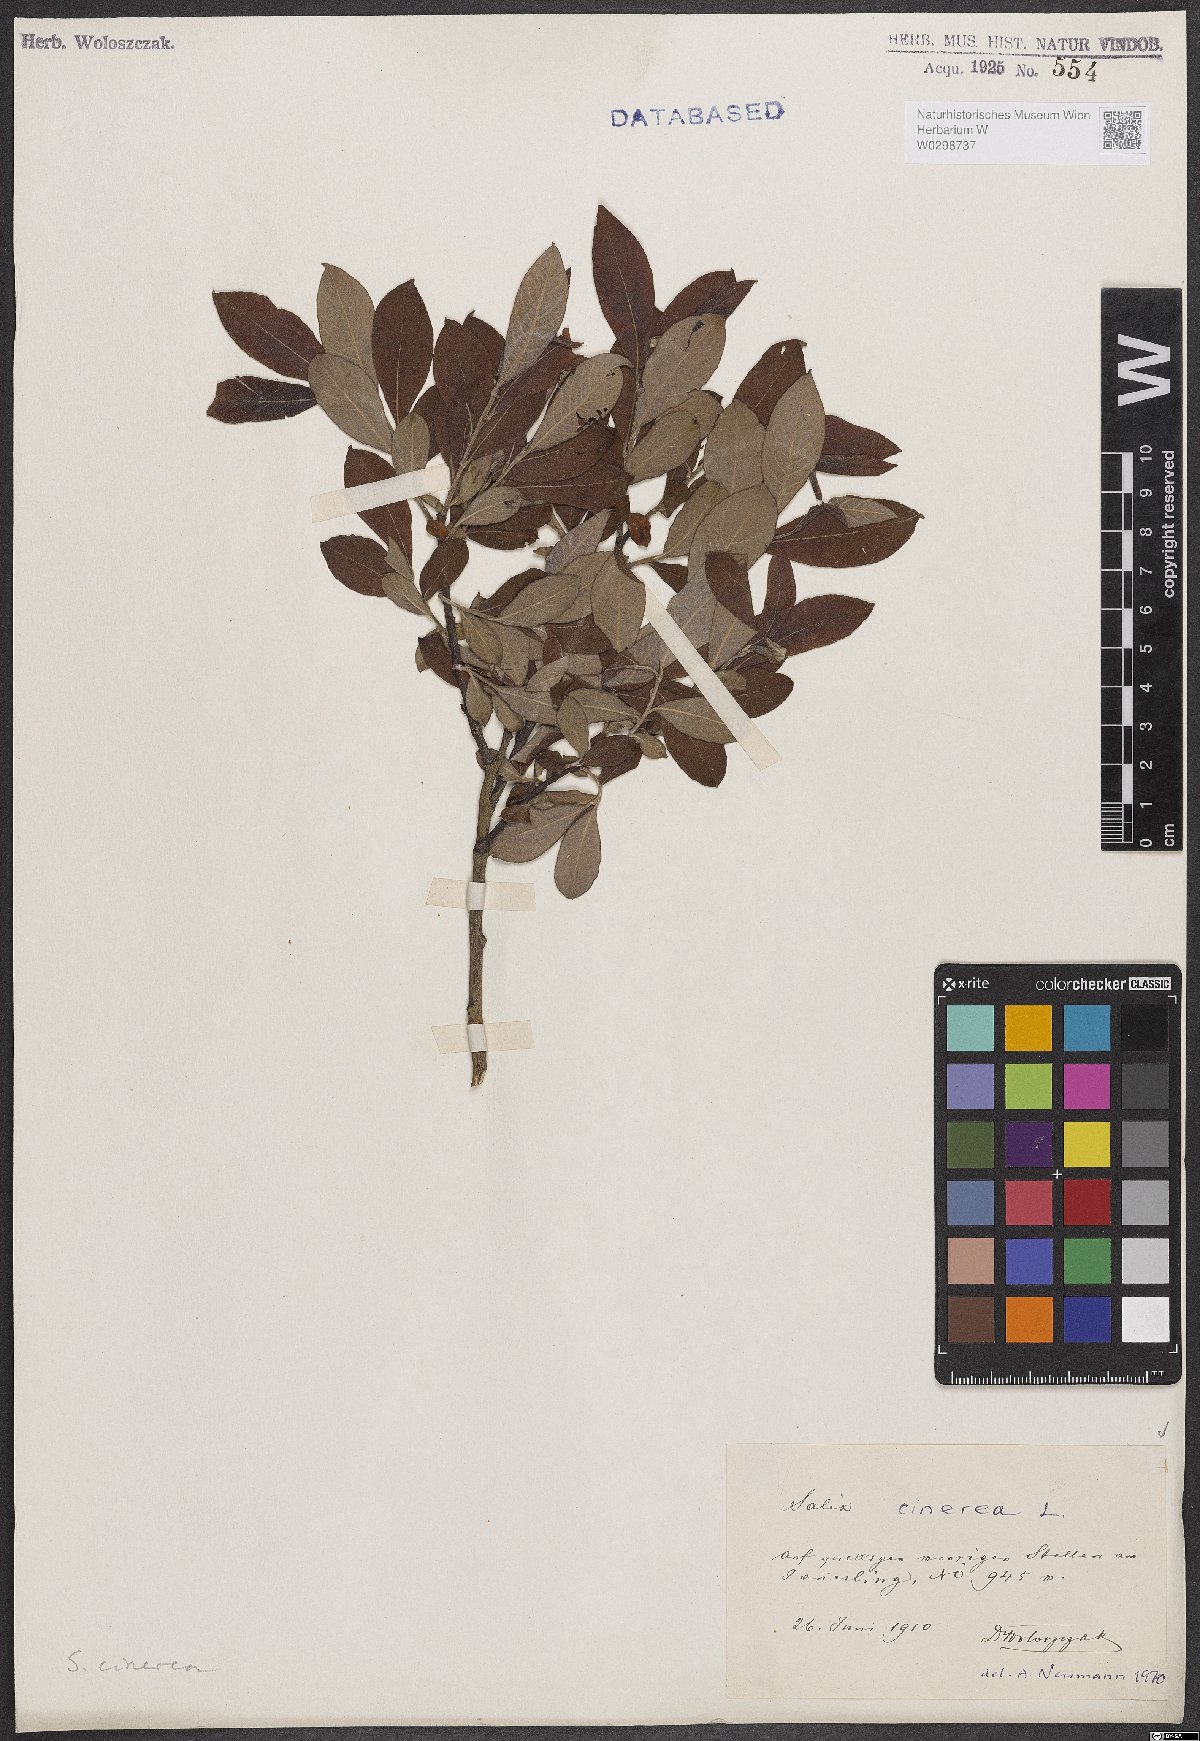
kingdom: Plantae
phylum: Tracheophyta
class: Magnoliopsida
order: Malpighiales
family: Salicaceae
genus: Salix
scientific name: Salix cinerea
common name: Common sallow
